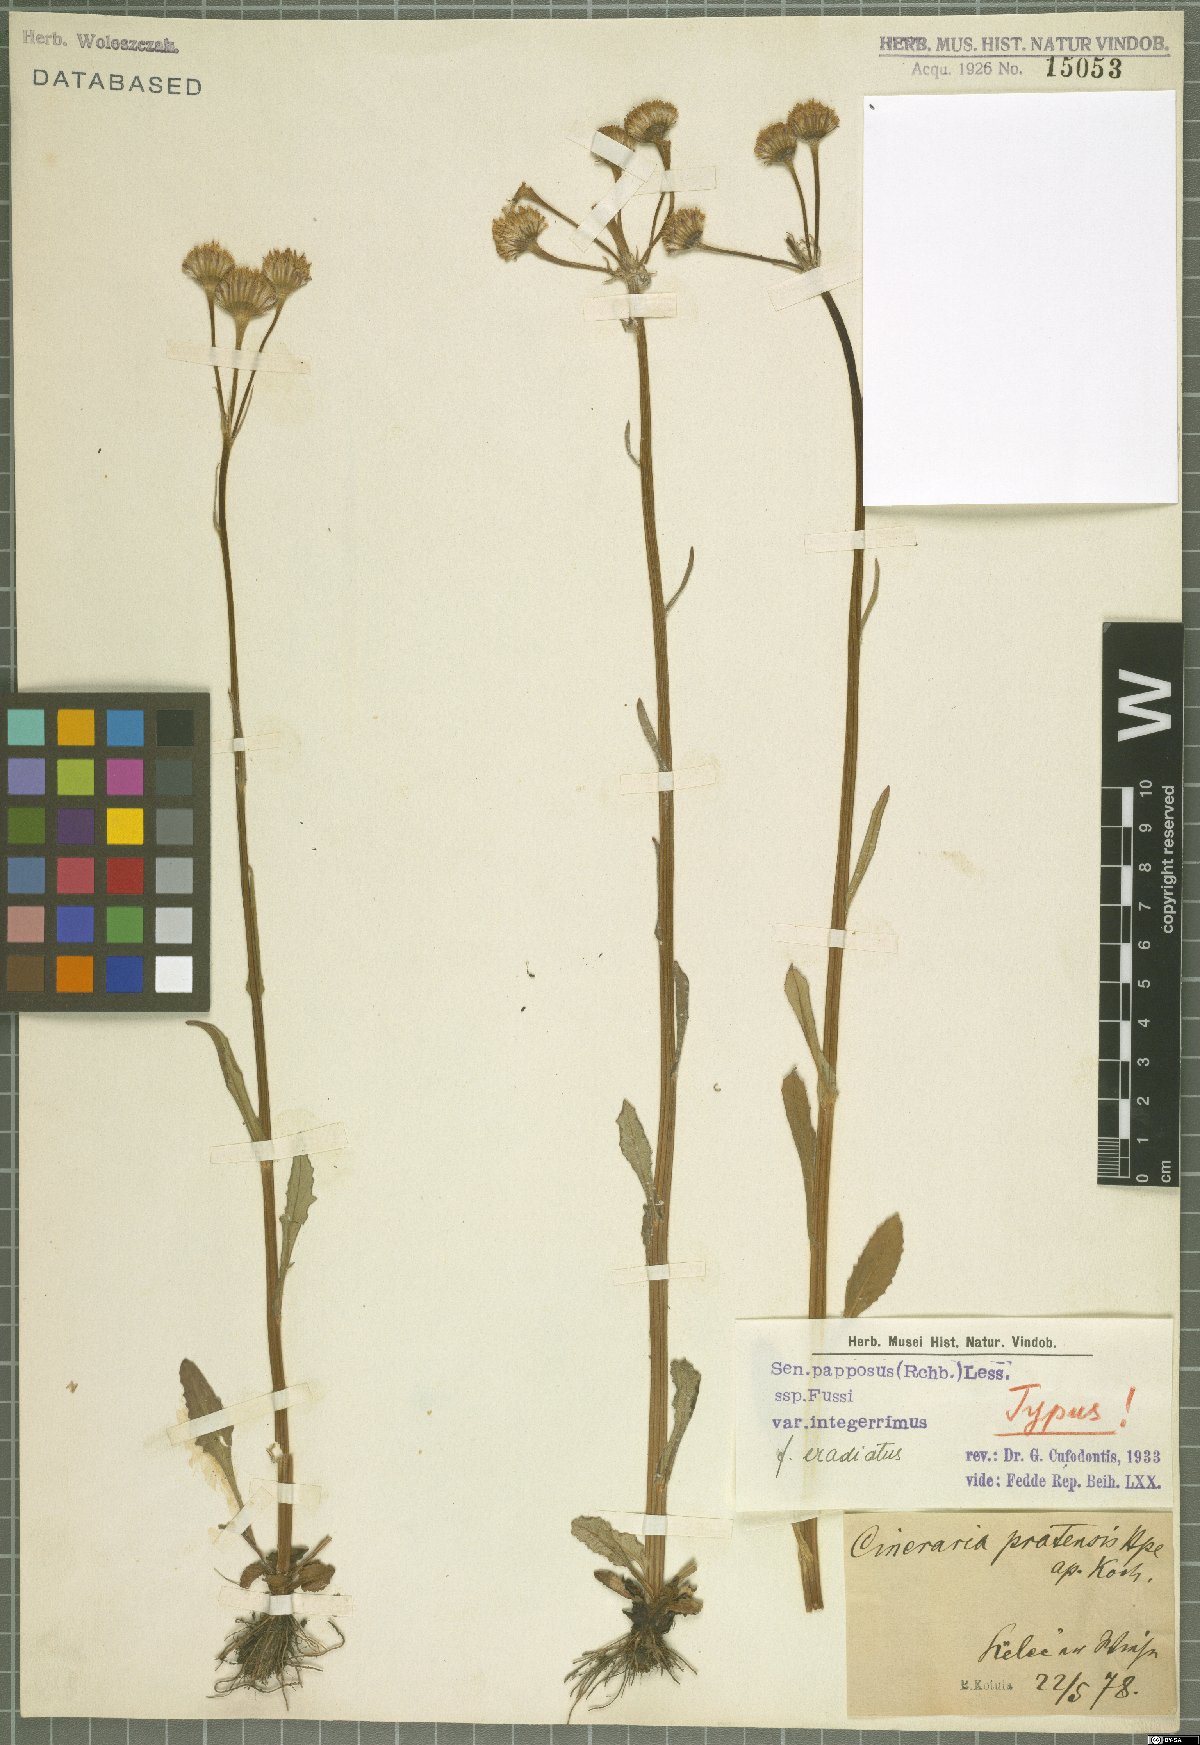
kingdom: Plantae
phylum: Tracheophyta
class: Magnoliopsida
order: Asterales
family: Asteraceae
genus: Tephroseris
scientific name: Tephroseris papposa
